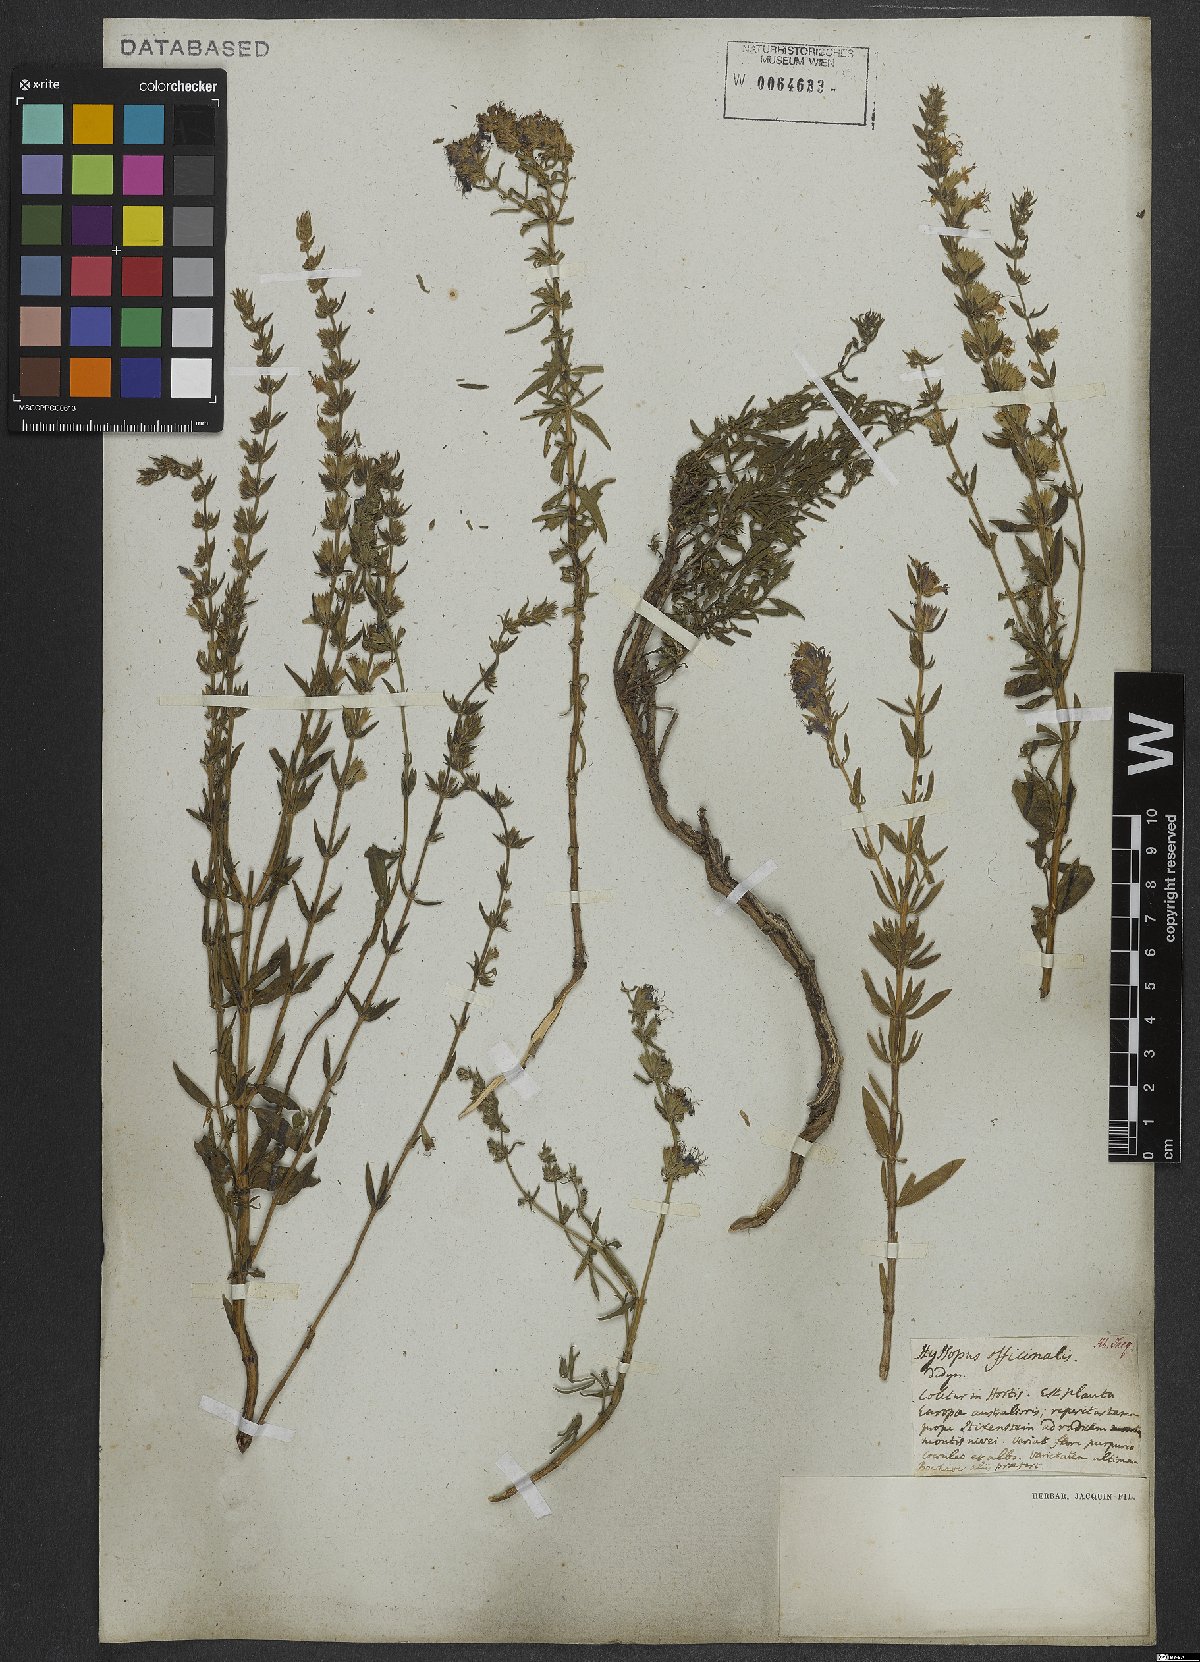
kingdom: Plantae
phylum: Tracheophyta
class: Magnoliopsida
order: Lamiales
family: Lamiaceae
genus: Hyssopus
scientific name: Hyssopus officinalis
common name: Hyssop
